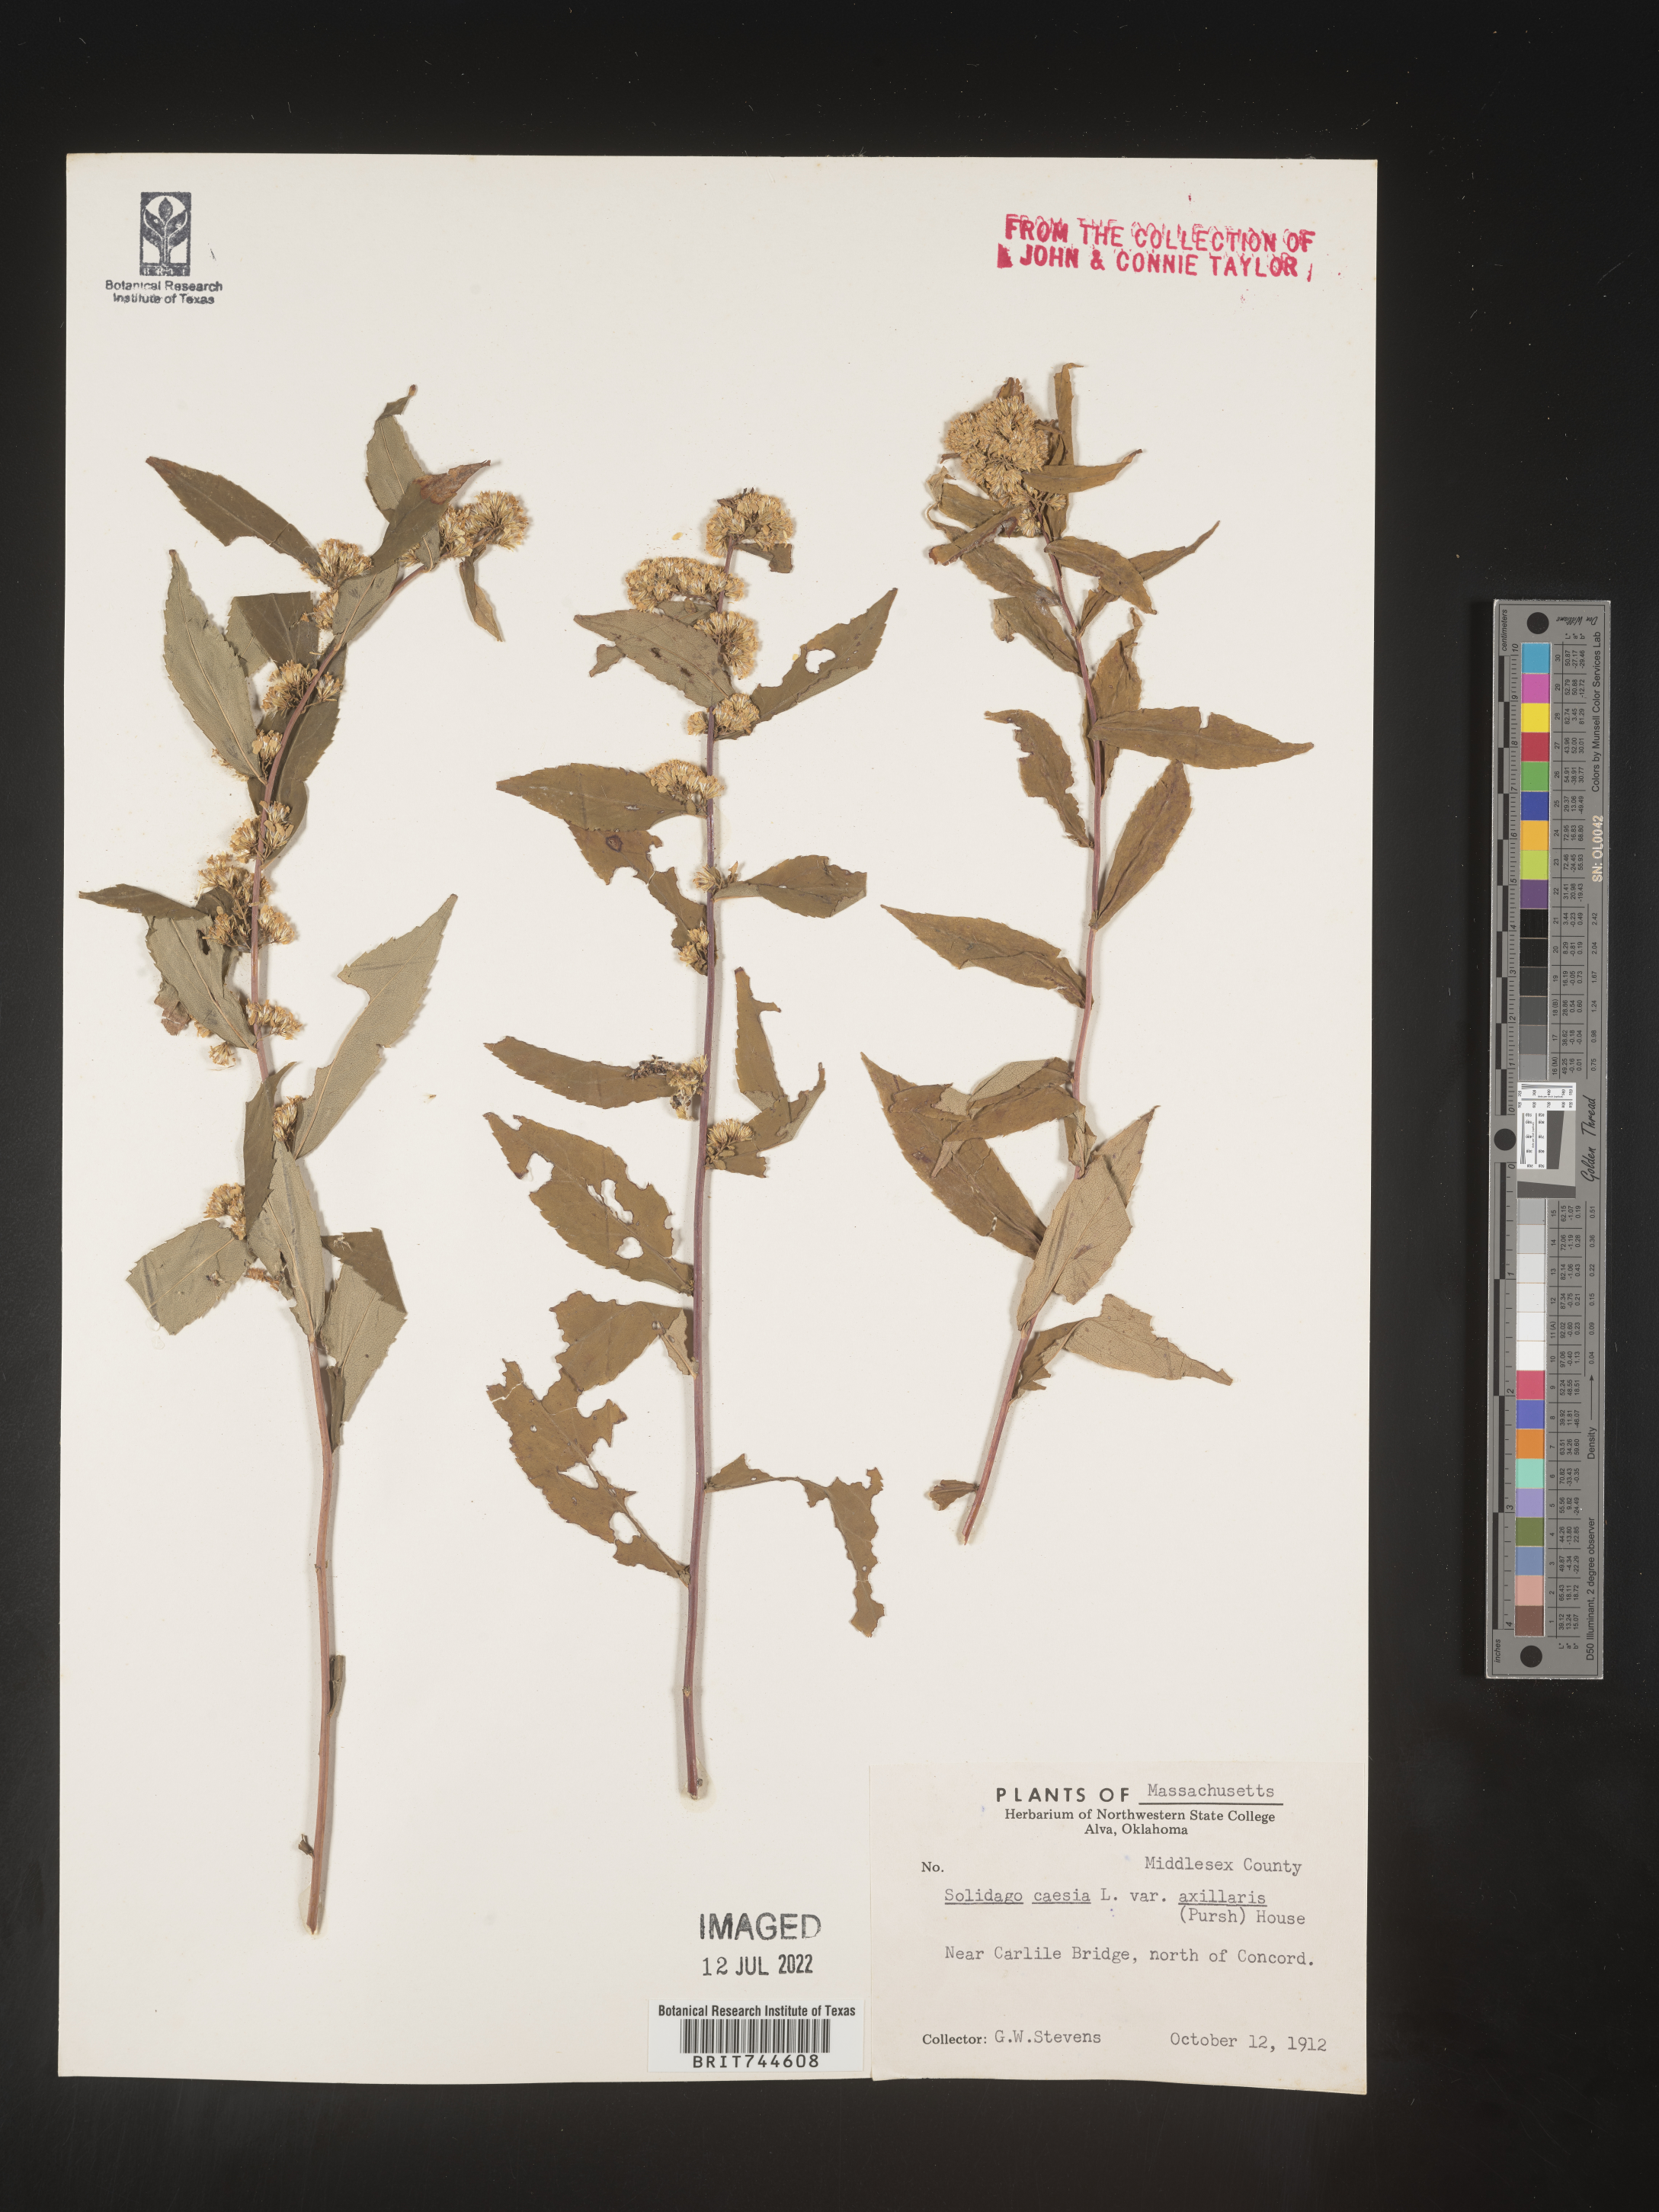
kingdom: Plantae
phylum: Tracheophyta
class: Magnoliopsida
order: Asterales
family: Asteraceae
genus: Solidago
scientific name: Solidago caesia
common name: Woodland goldenrod
